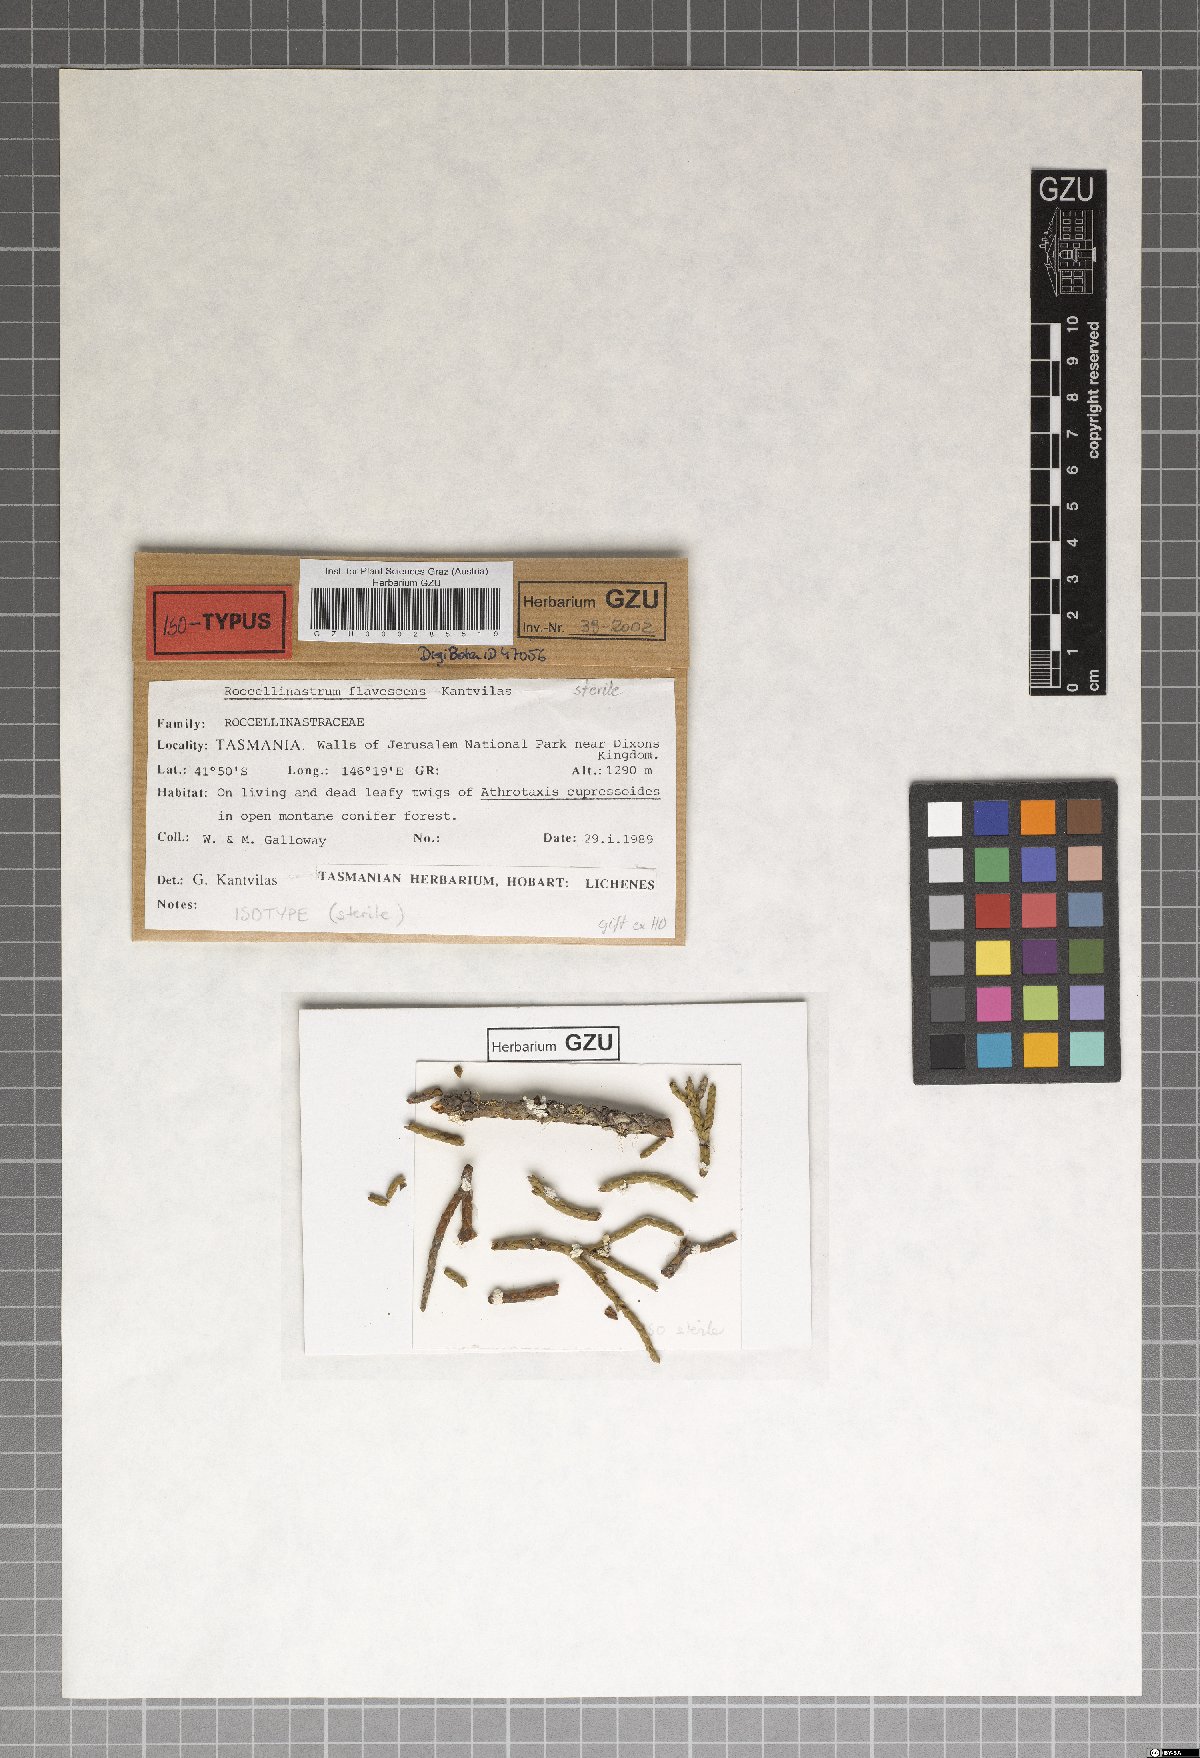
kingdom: Fungi
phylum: Ascomycota
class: Lecanoromycetes
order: Lecanorales
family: Byssolomataceae
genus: Roccellinastrum
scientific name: Roccellinastrum flavescens
